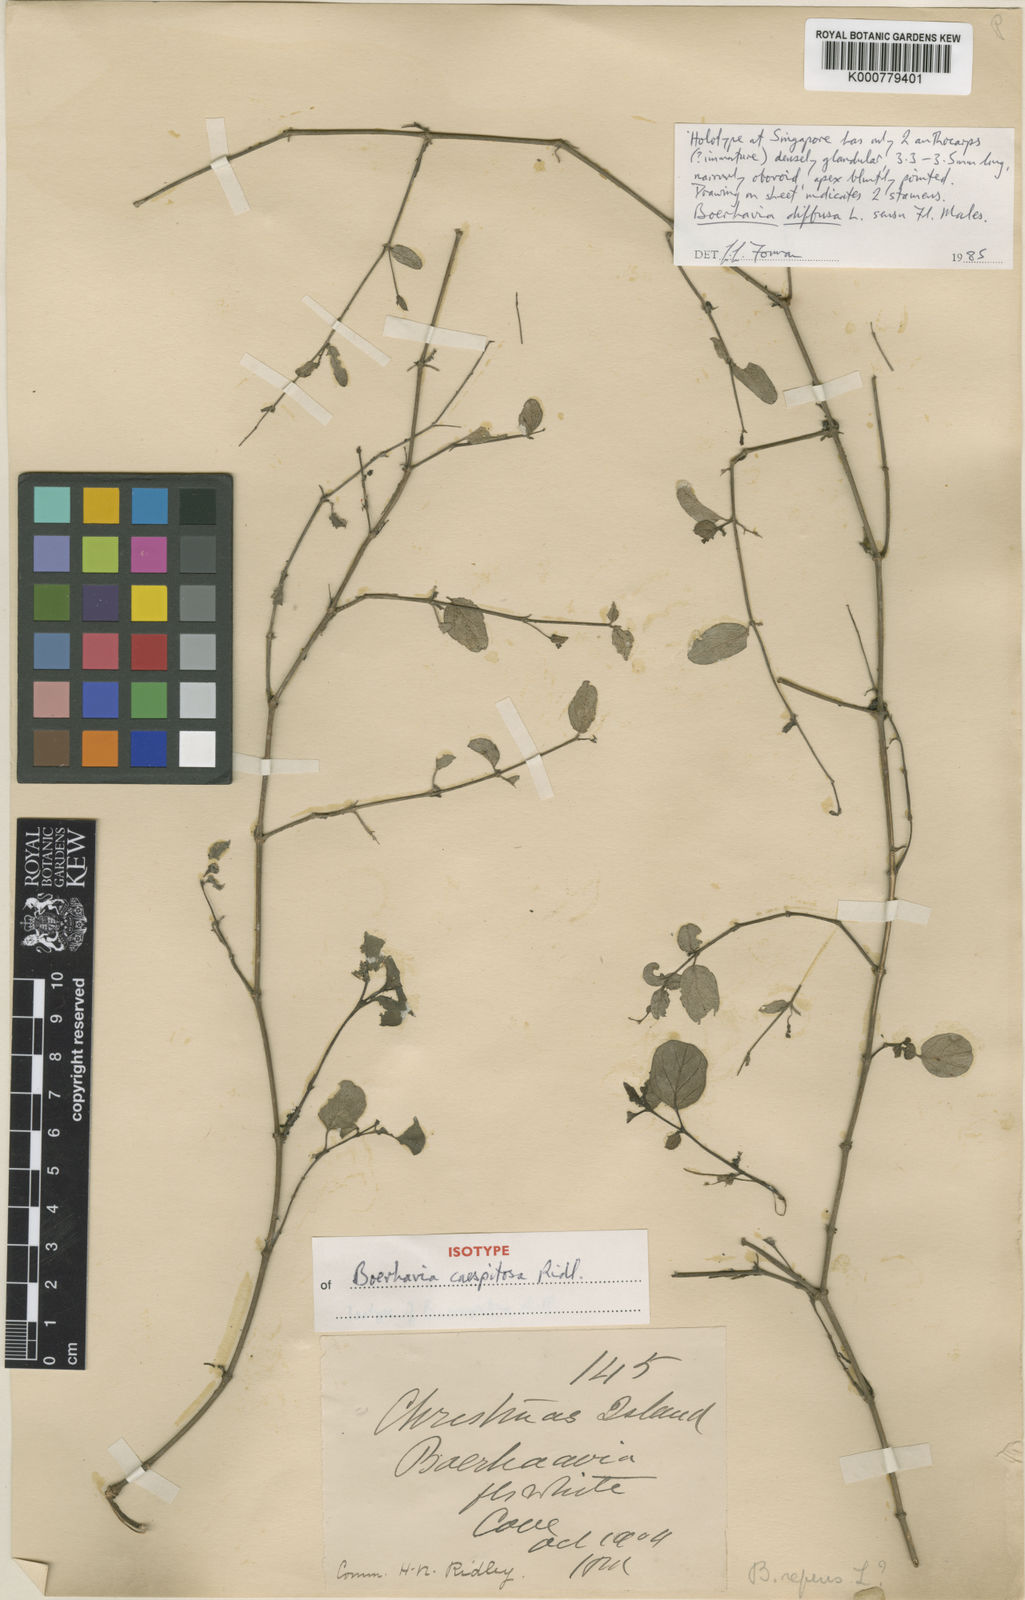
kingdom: Plantae
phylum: Tracheophyta
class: Magnoliopsida
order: Caryophyllales
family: Nyctaginaceae
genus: Boerhavia
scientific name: Boerhavia coccinea
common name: Scarlet spiderling
